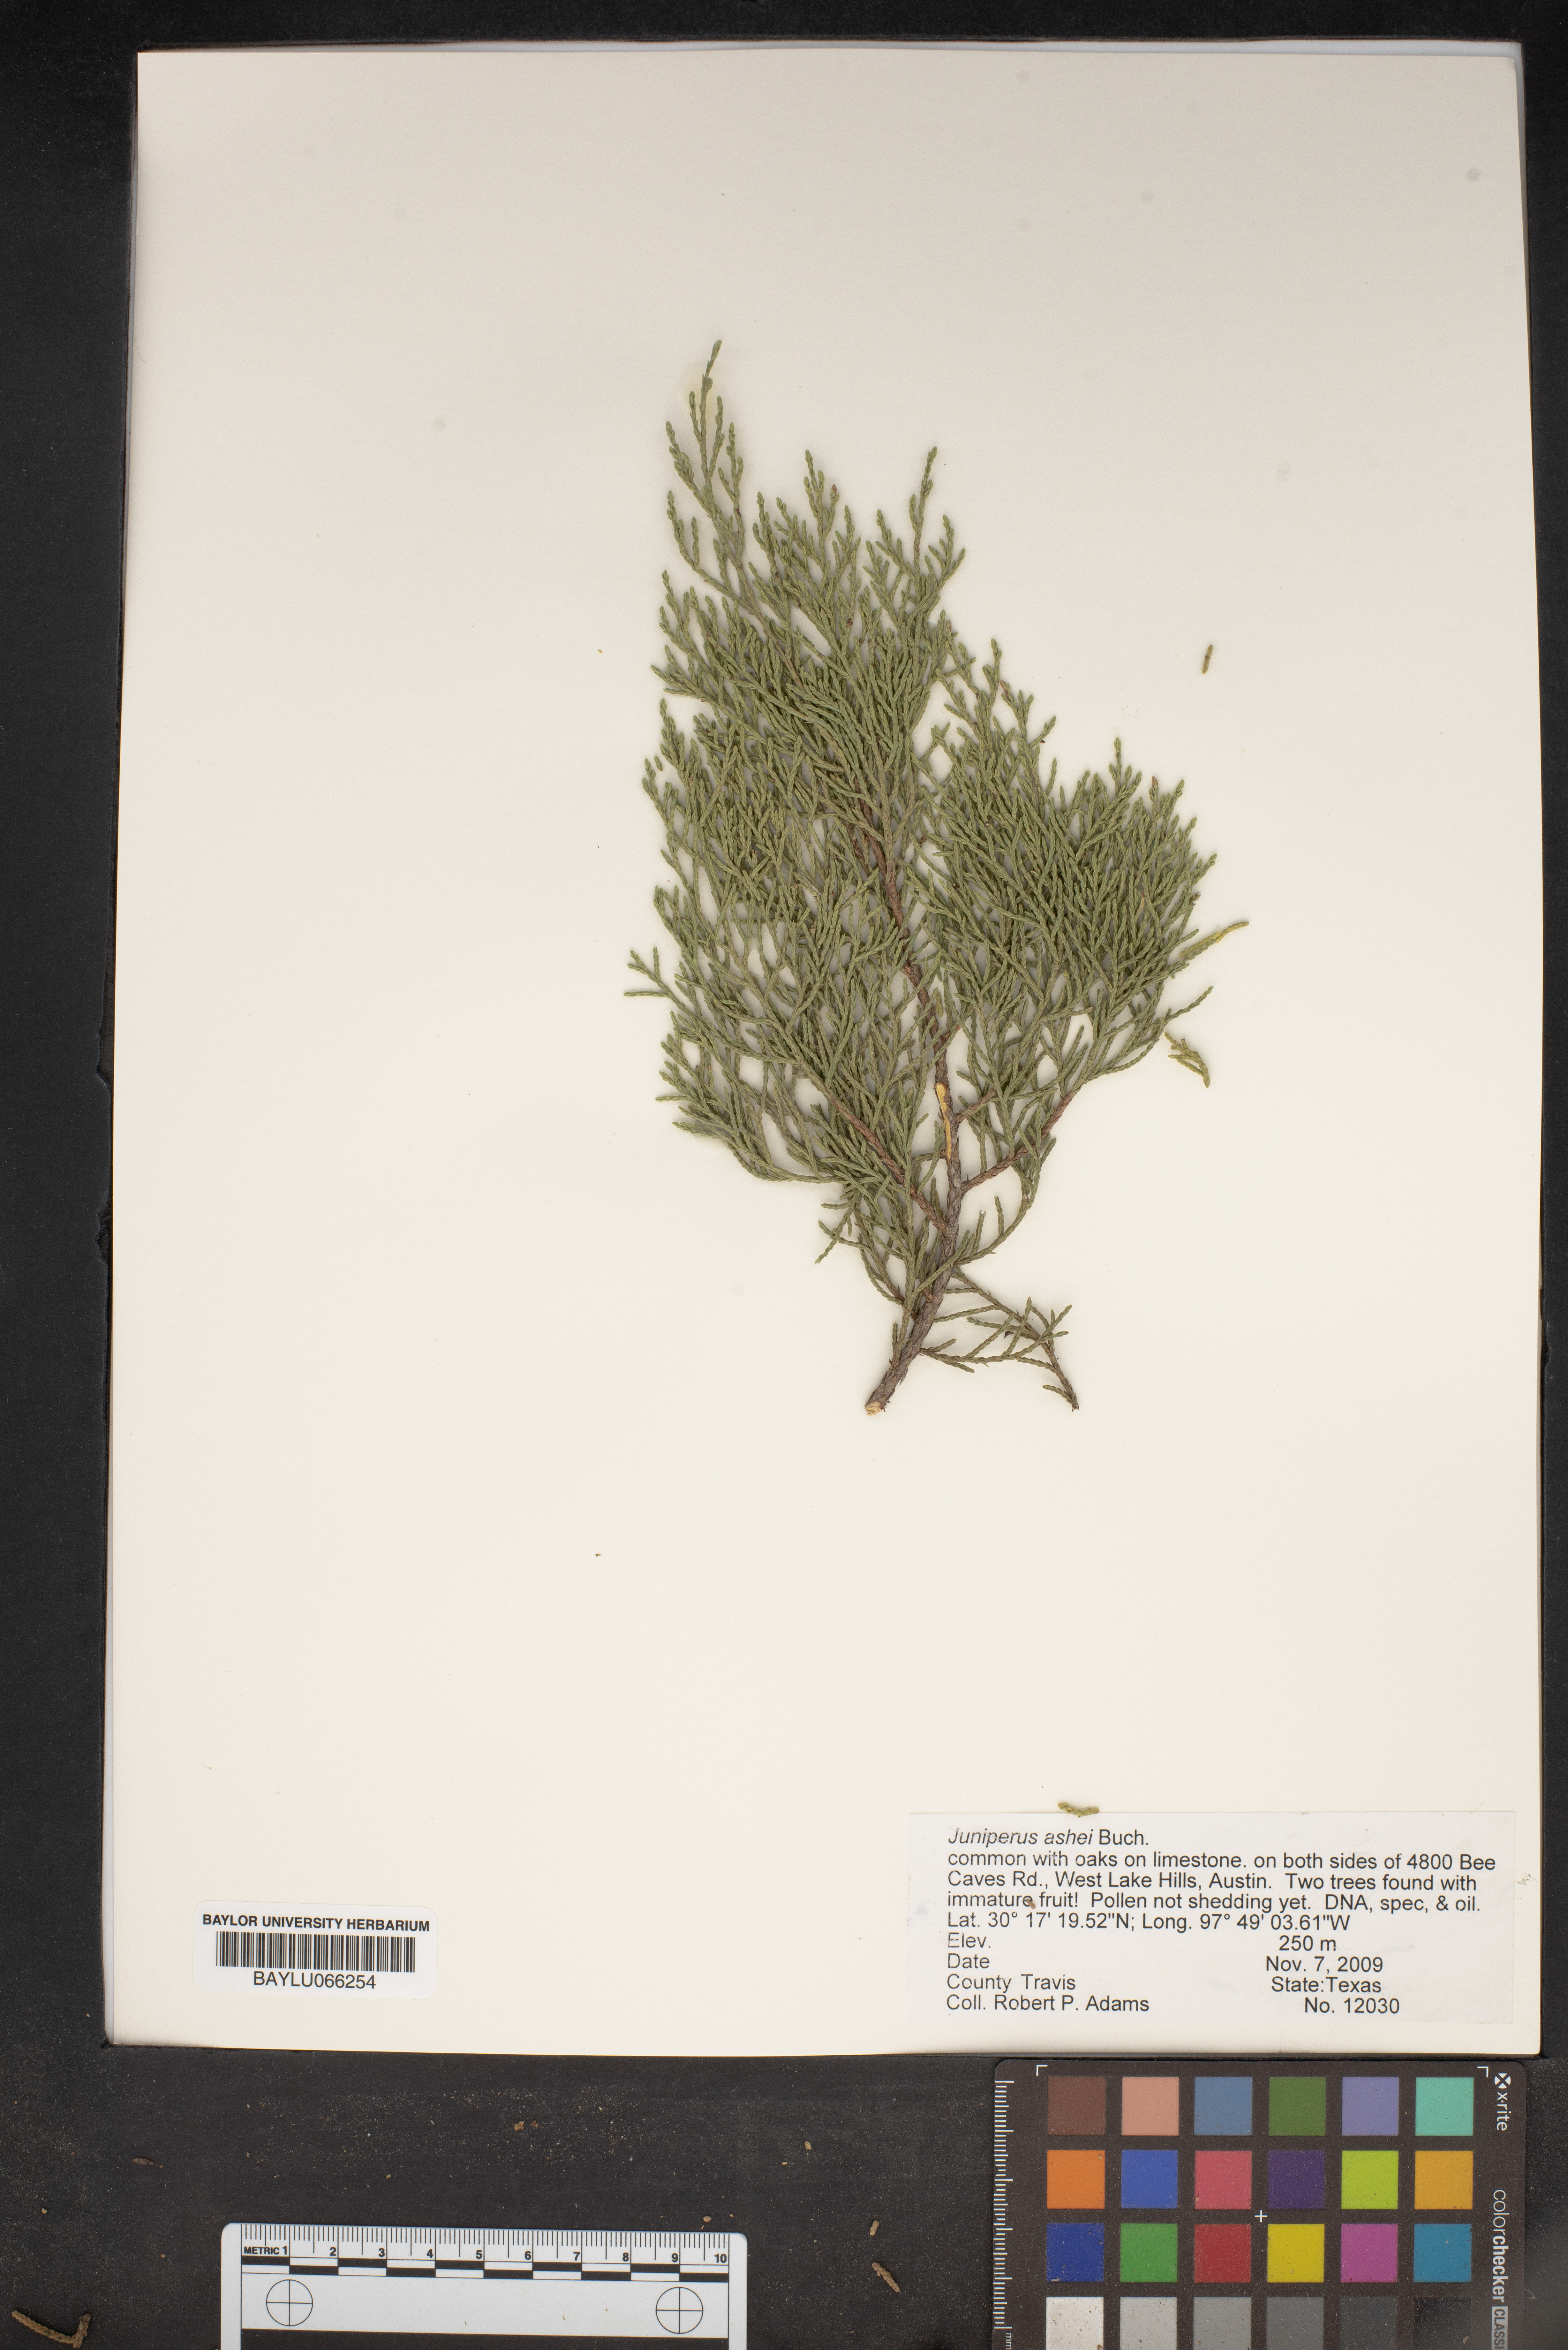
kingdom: Plantae
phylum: Tracheophyta
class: Pinopsida
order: Pinales
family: Cupressaceae
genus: Juniperus
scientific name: Juniperus ashei
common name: Mexican juniper
